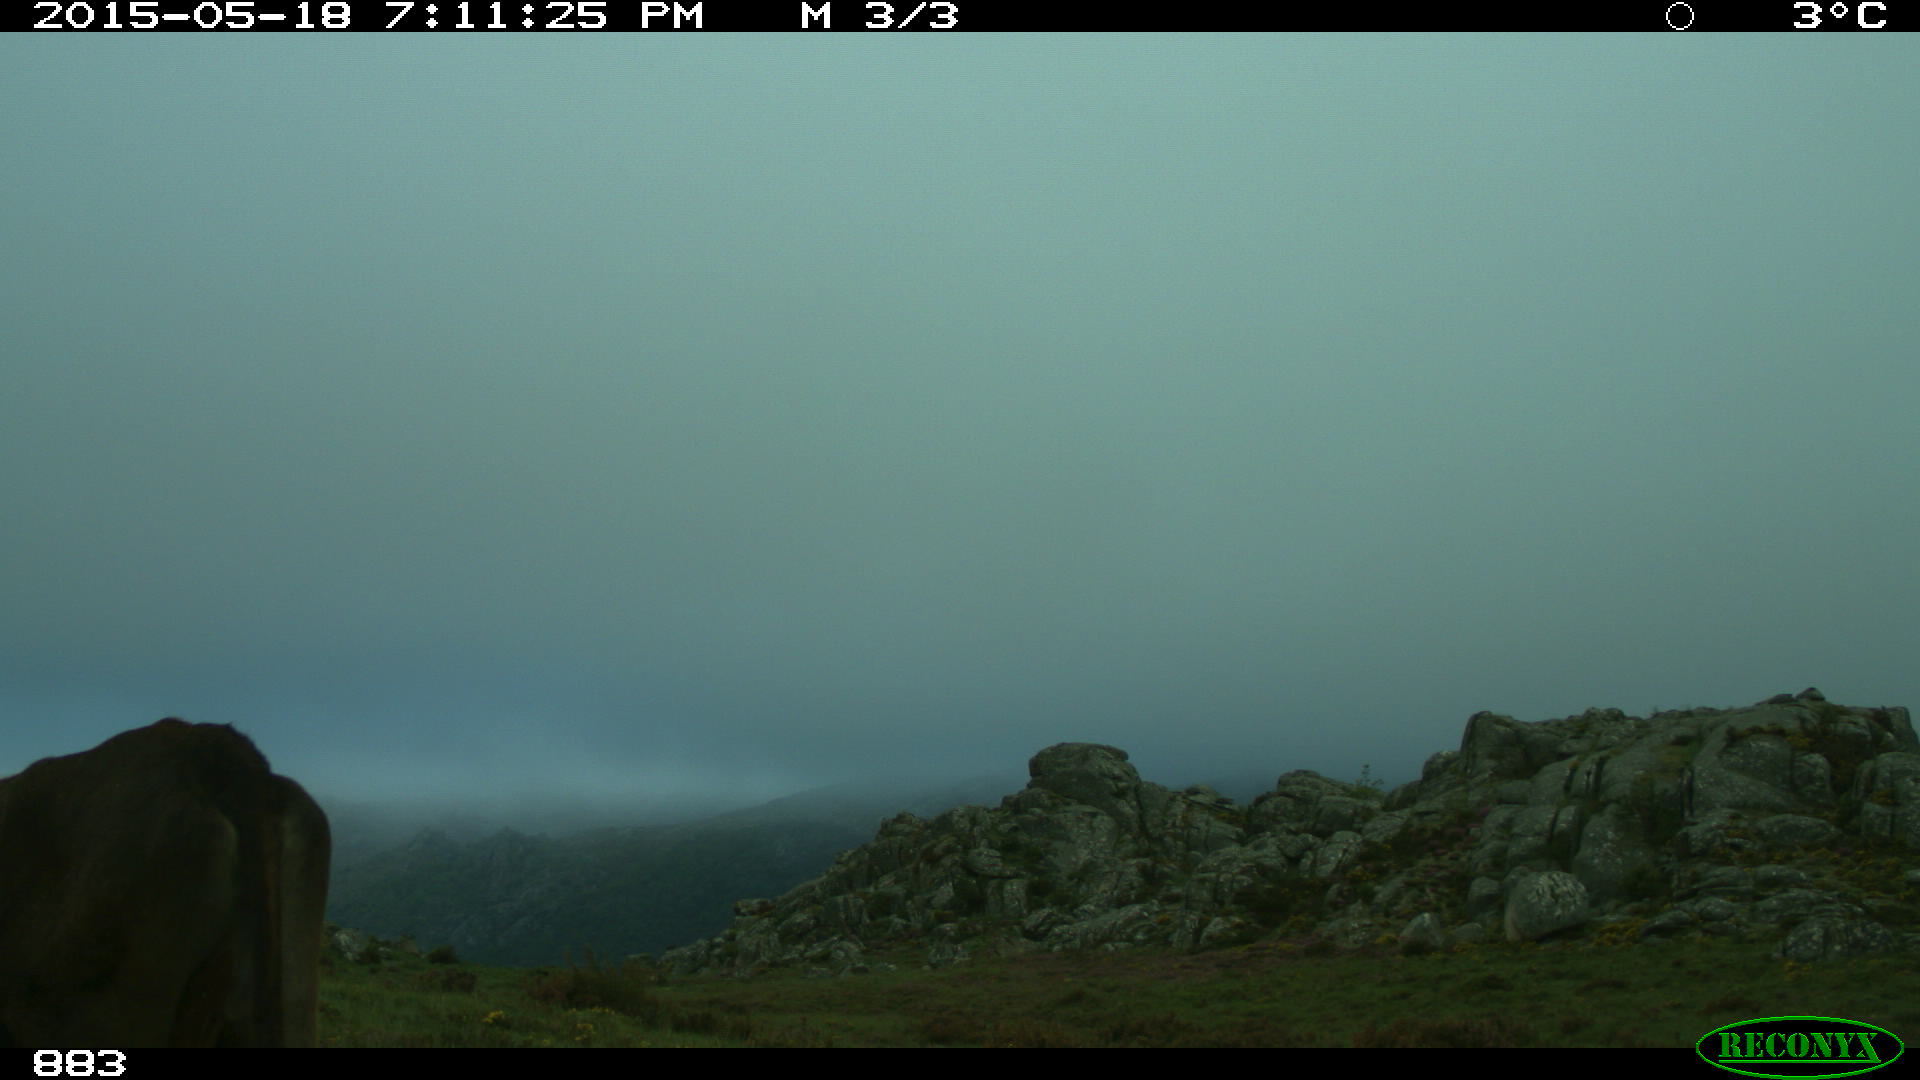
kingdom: Animalia
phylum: Chordata
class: Mammalia
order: Artiodactyla
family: Bovidae
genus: Bos
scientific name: Bos taurus
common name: Domesticated cattle
